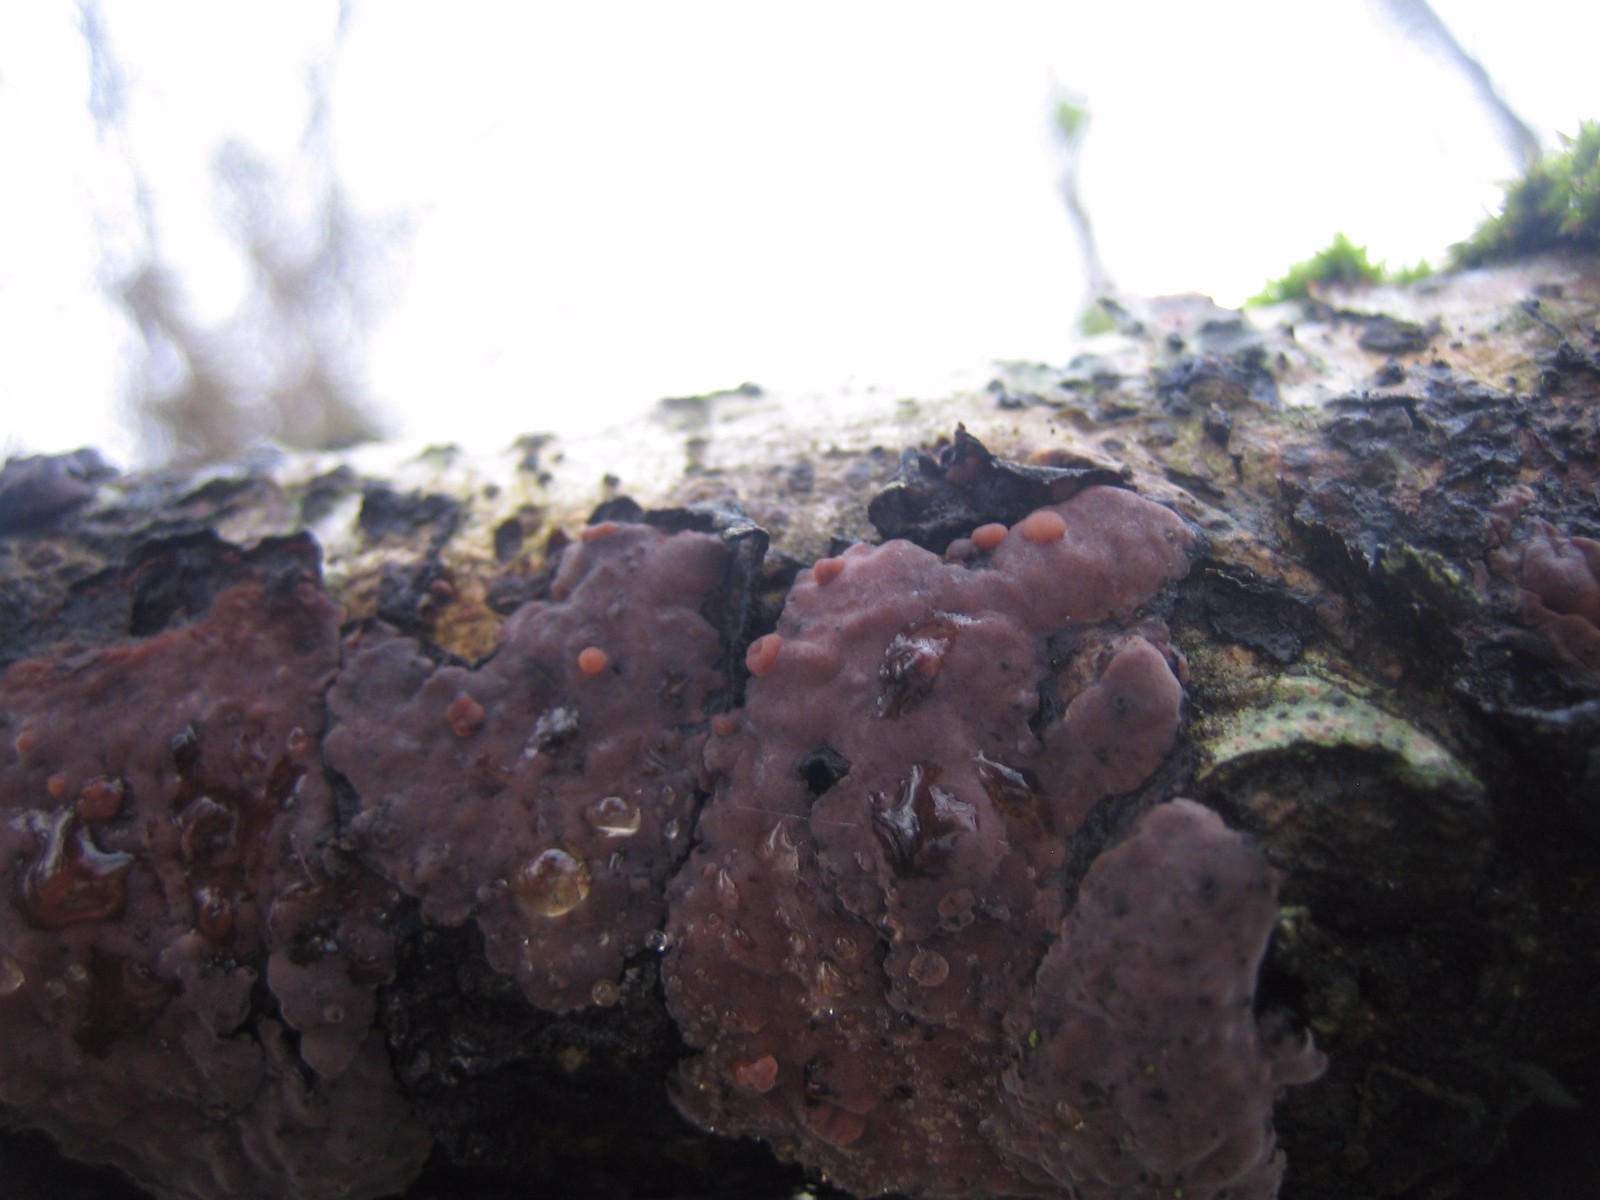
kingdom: Fungi
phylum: Basidiomycota
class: Agaricomycetes
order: Russulales
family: Peniophoraceae
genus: Peniophora
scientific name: Peniophora quercina
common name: ege-voksskind
